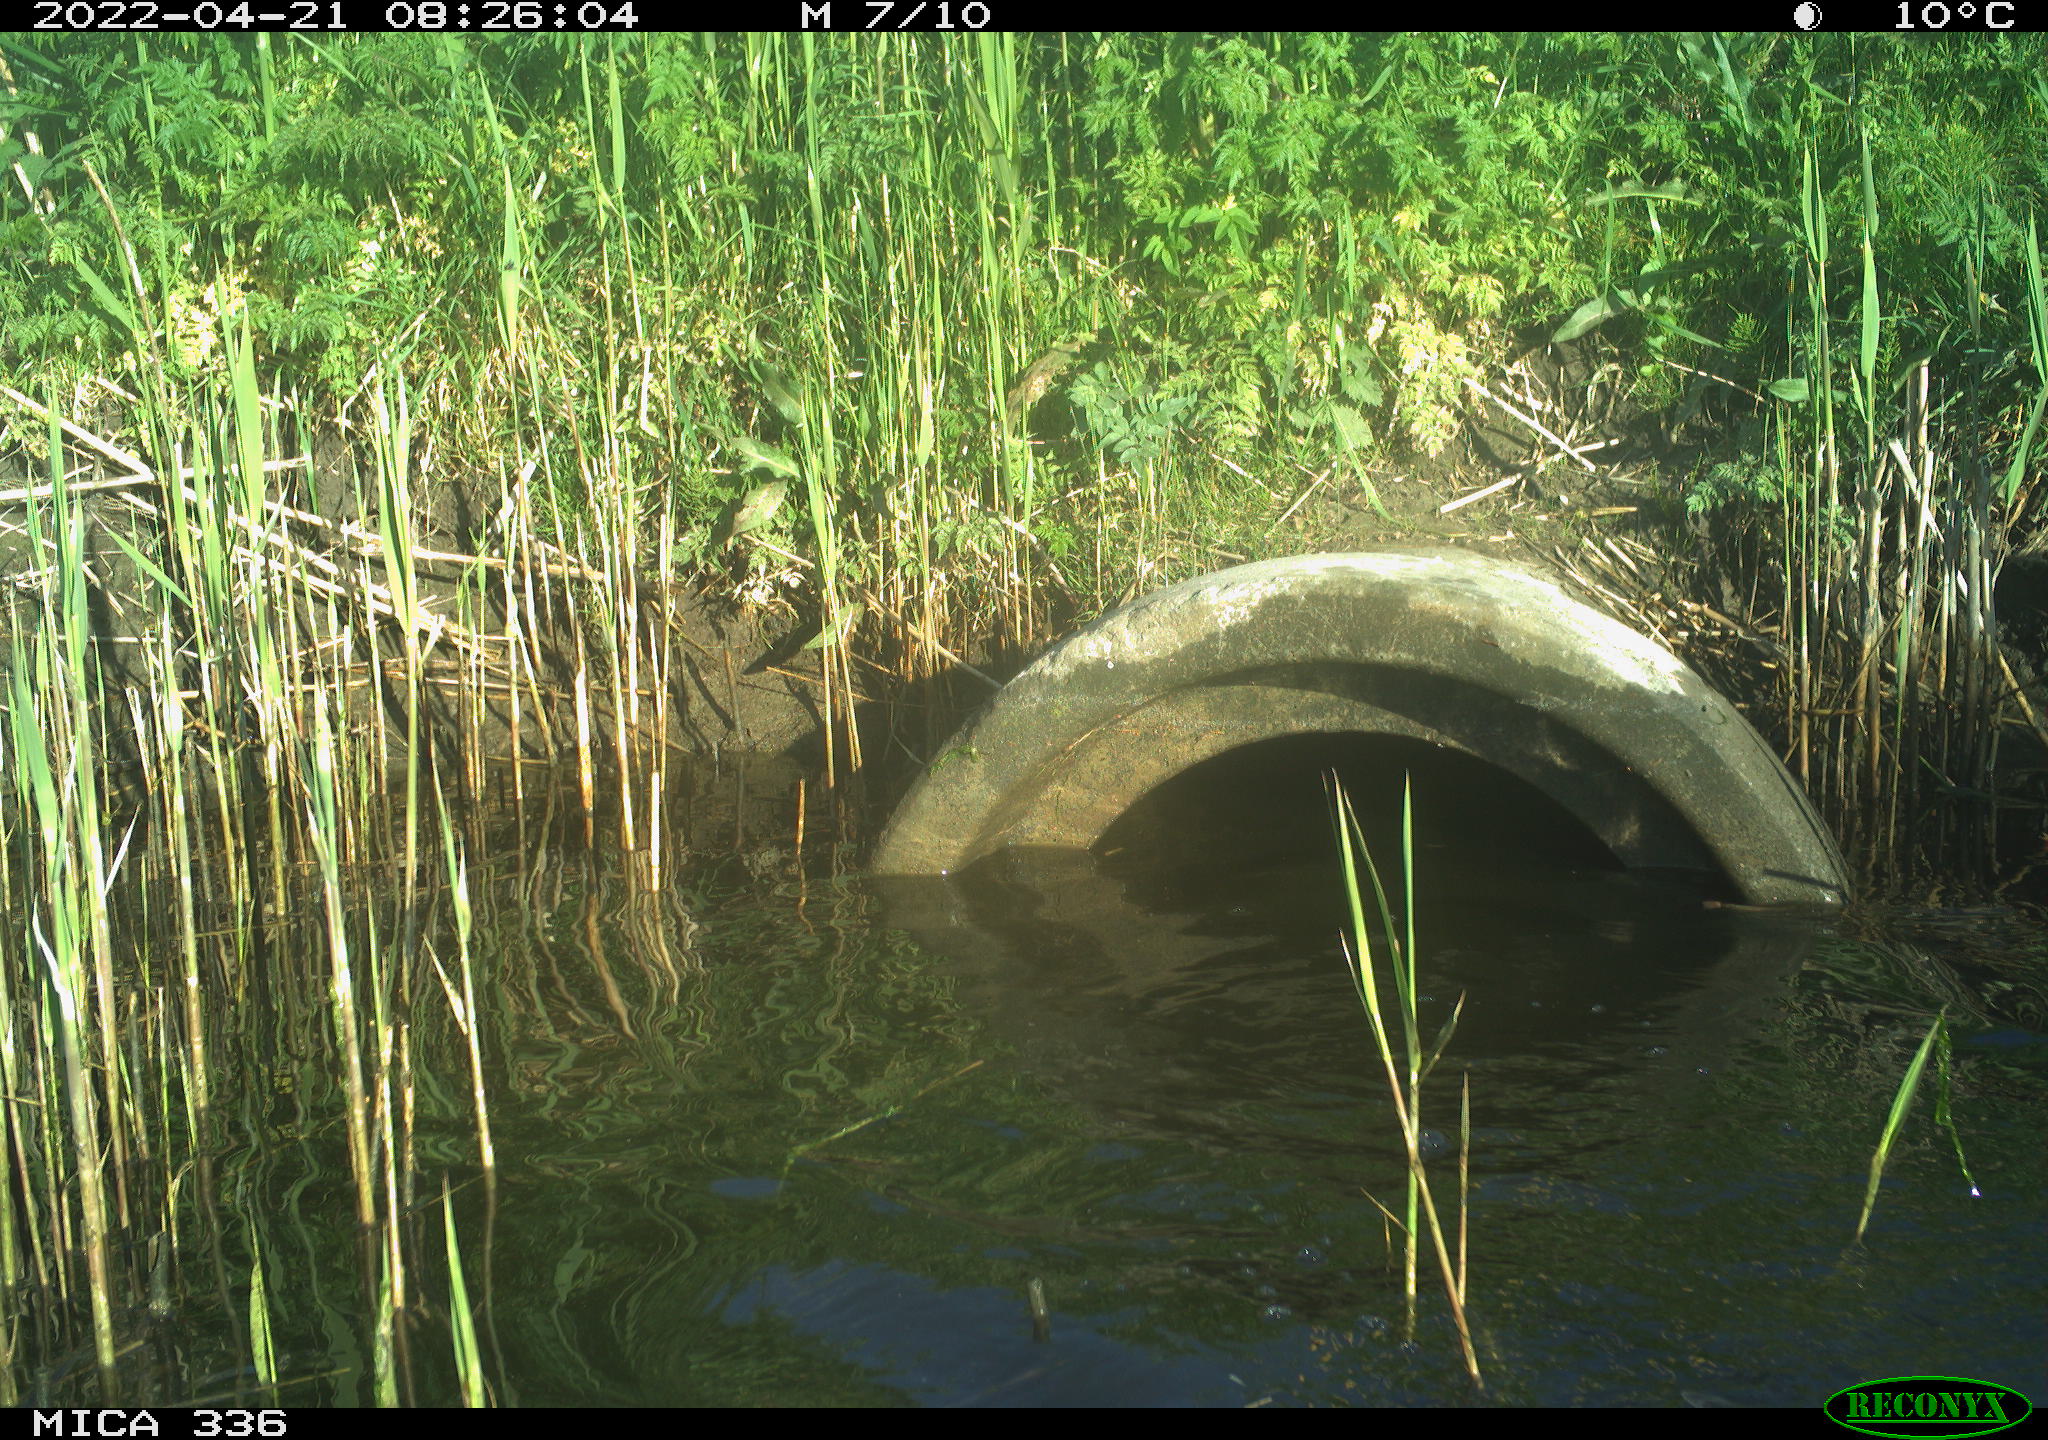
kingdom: Animalia
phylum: Chordata
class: Aves
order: Anseriformes
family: Anatidae
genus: Anas
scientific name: Anas platyrhynchos
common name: Mallard
